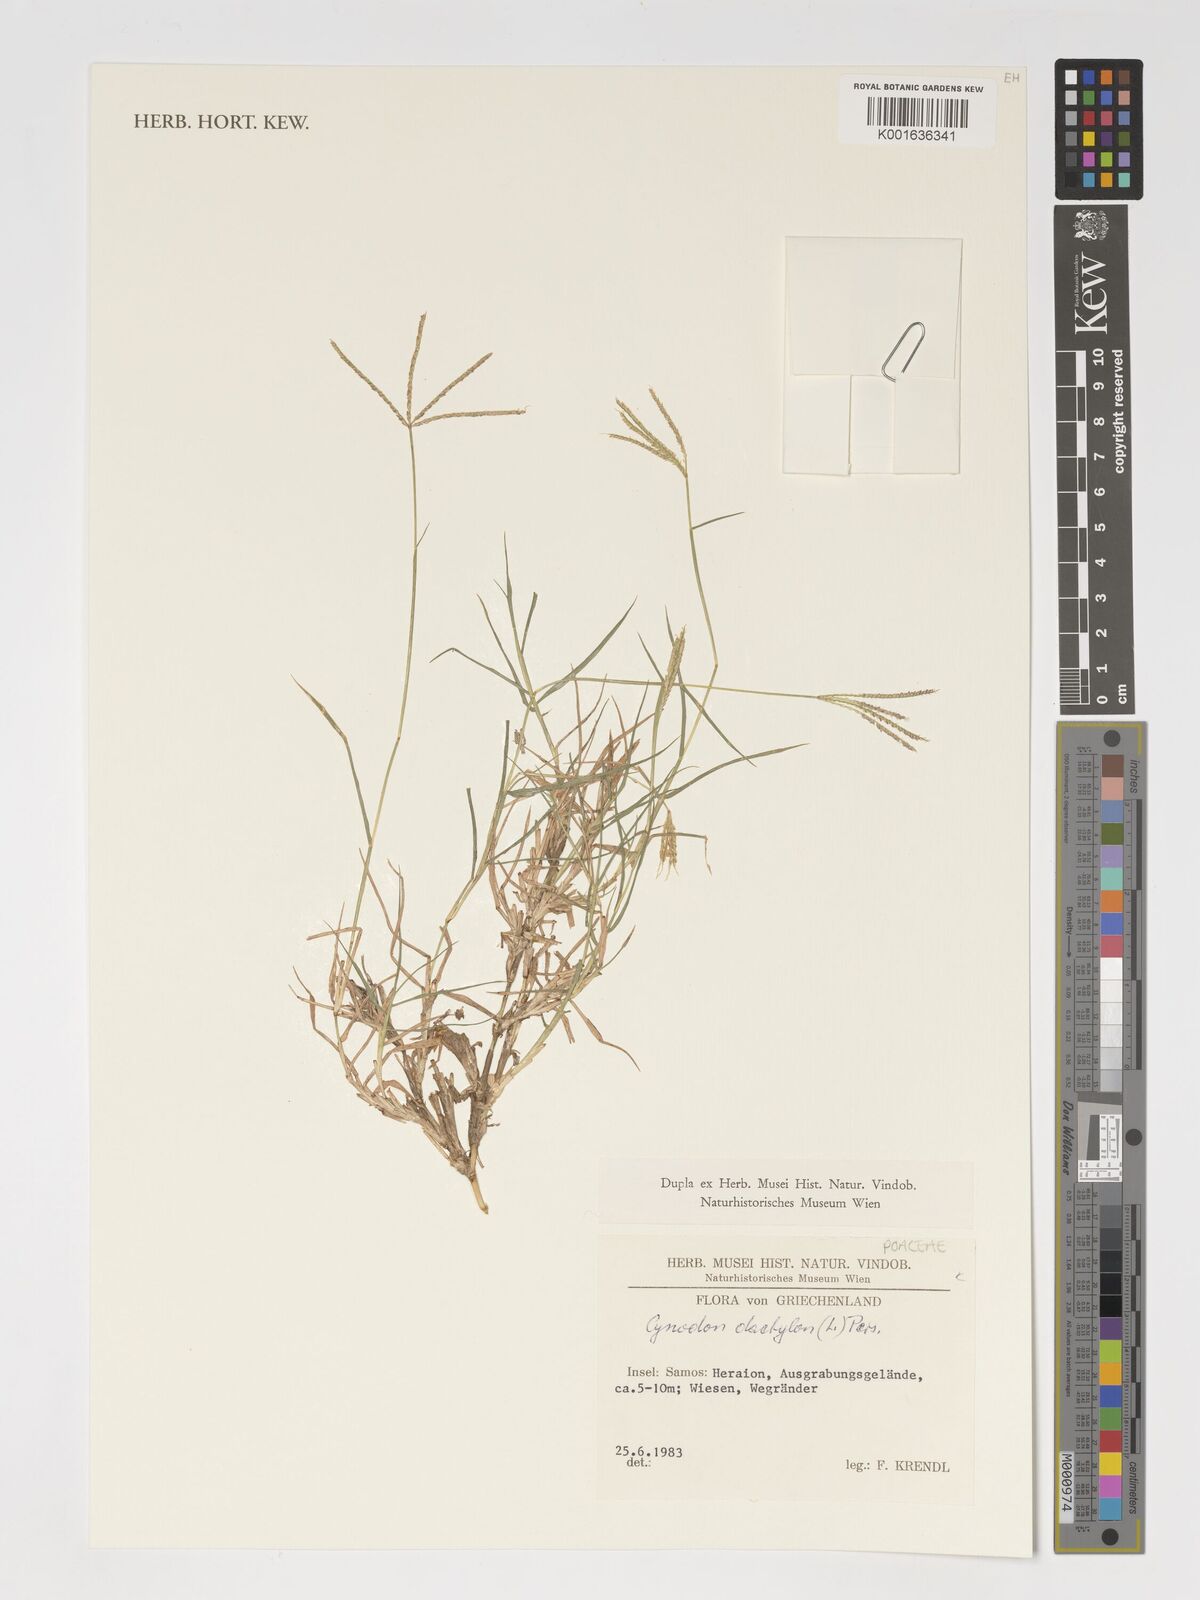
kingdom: Plantae
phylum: Tracheophyta
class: Liliopsida
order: Poales
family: Poaceae
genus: Cynodon
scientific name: Cynodon dactylon
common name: Bermuda grass
